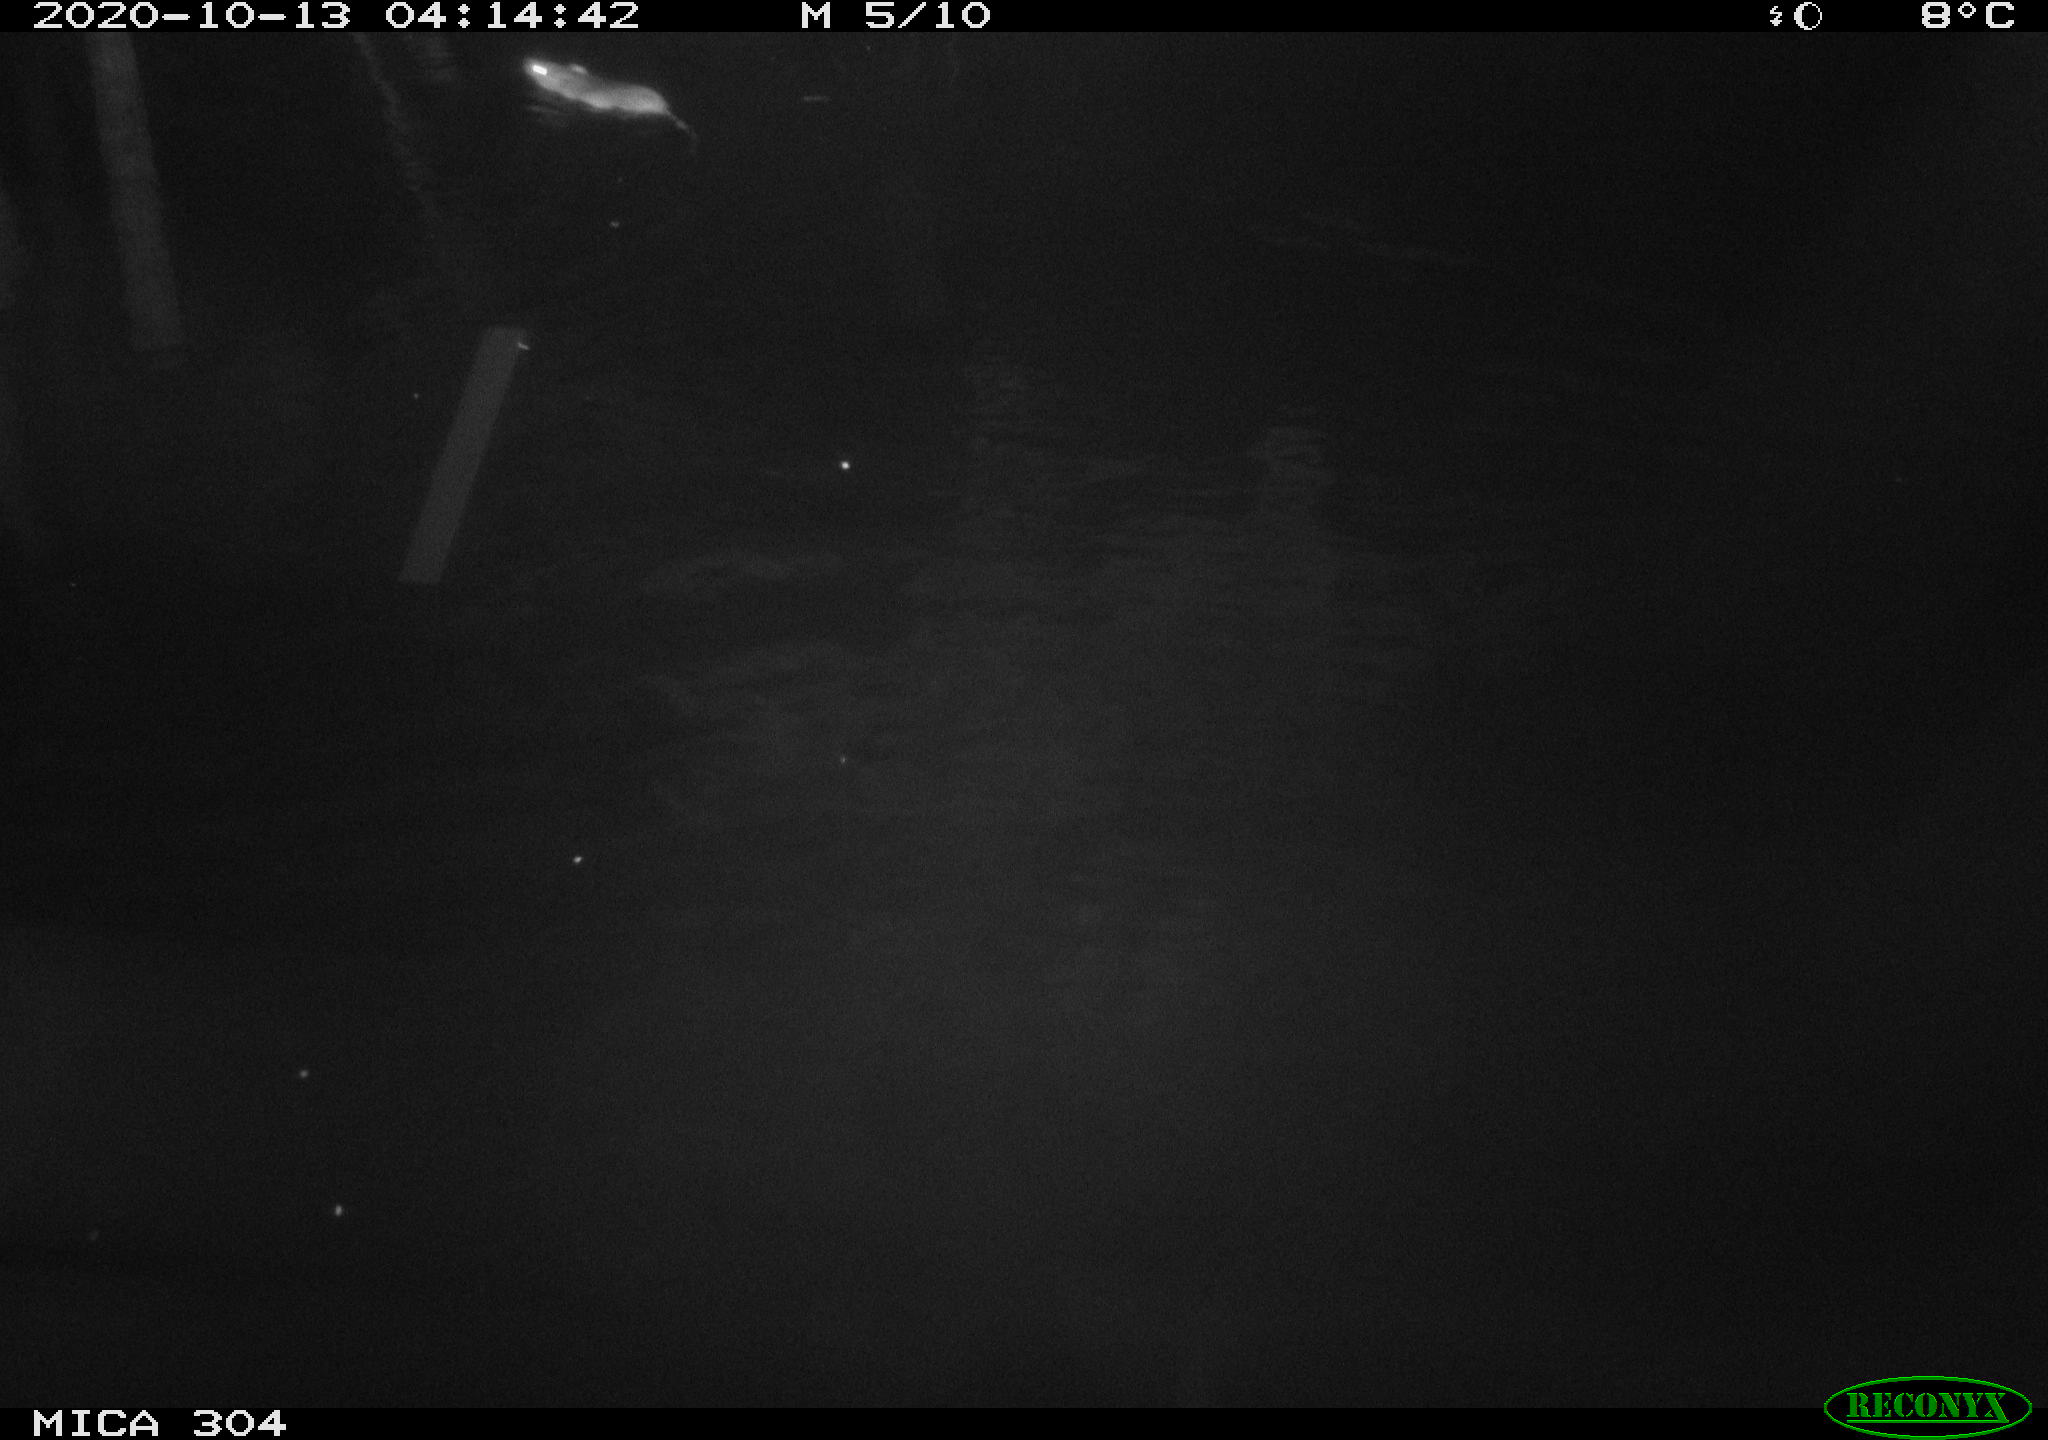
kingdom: Animalia
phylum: Chordata
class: Mammalia
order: Rodentia
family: Muridae
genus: Rattus
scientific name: Rattus norvegicus
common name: Brown rat
